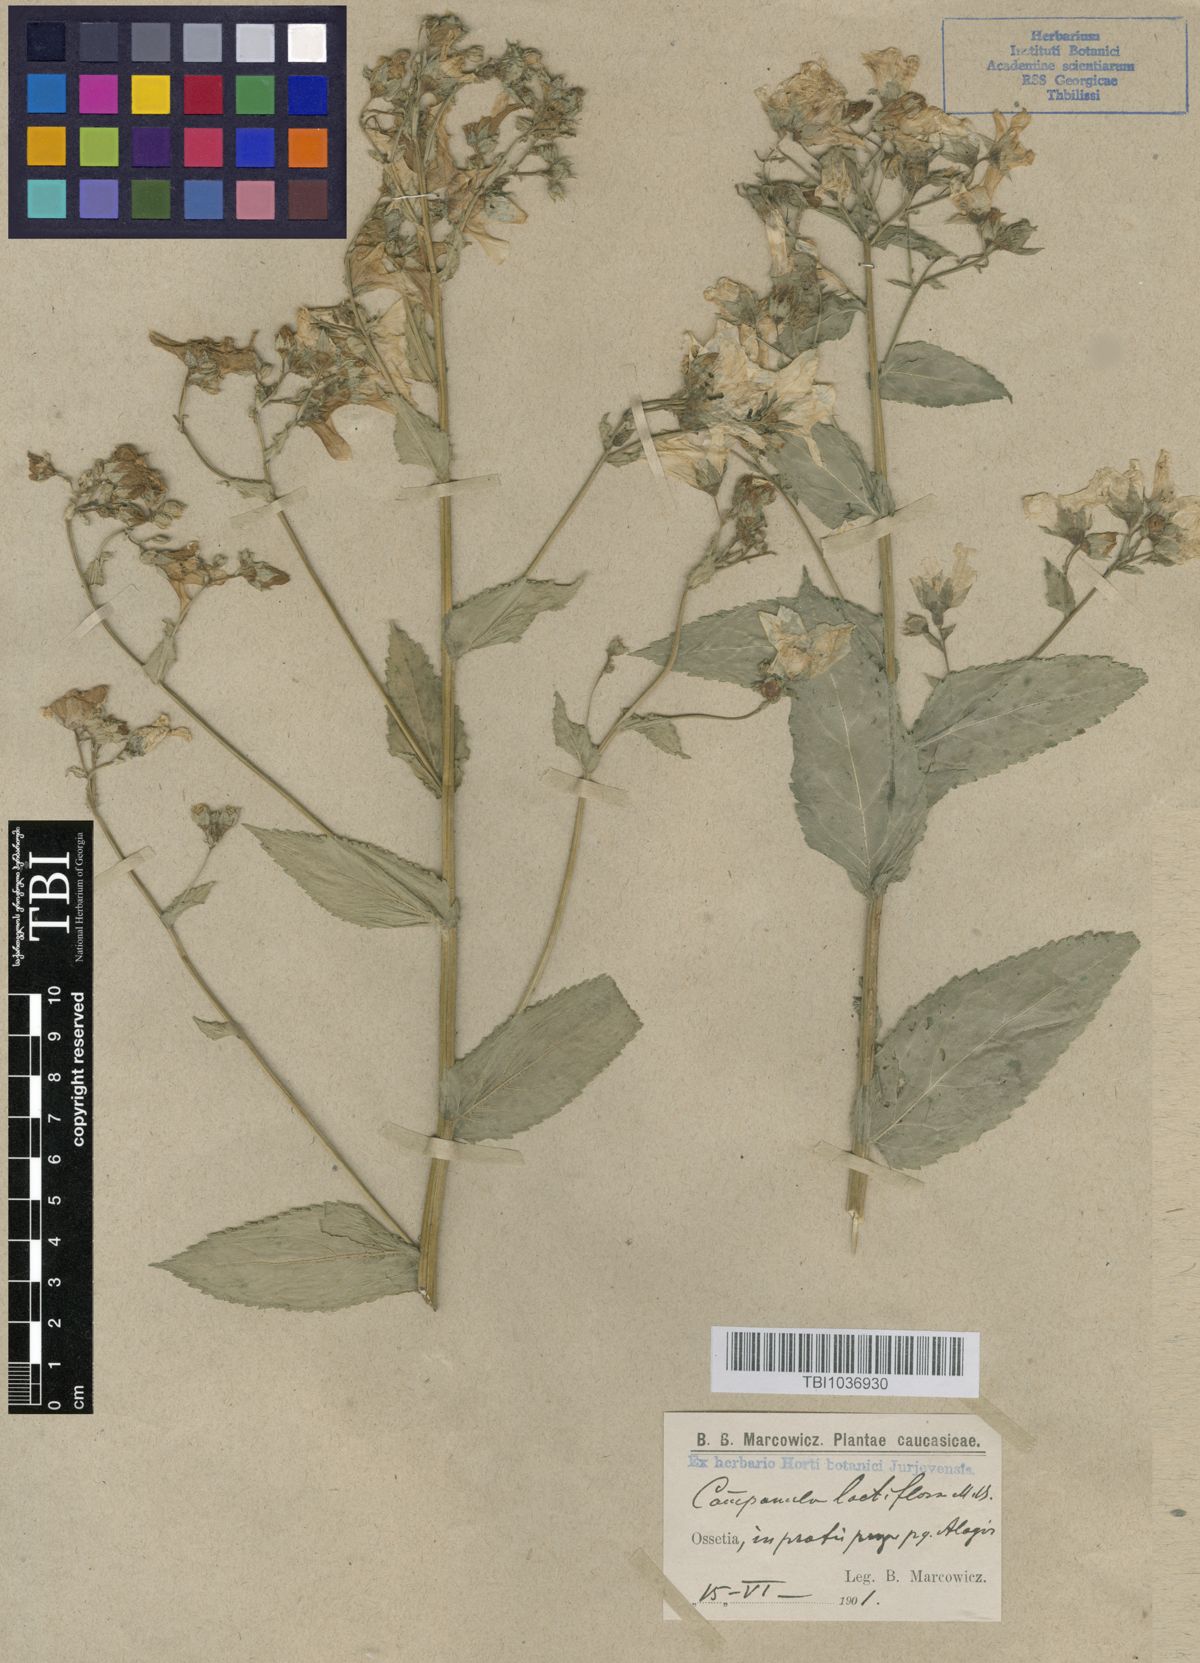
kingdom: Plantae
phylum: Tracheophyta
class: Magnoliopsida
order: Asterales
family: Campanulaceae
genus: Campanula
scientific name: Campanula lactiflora
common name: Milky bellflower
